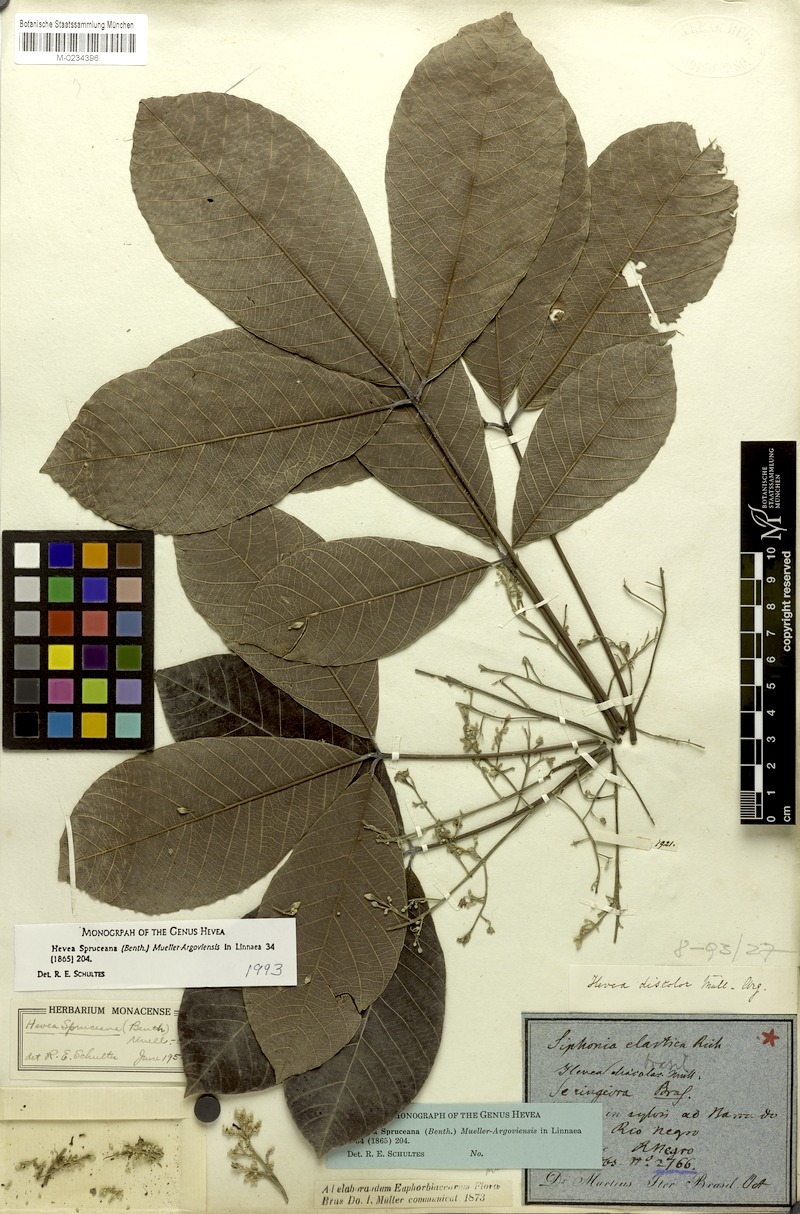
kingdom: Plantae
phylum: Tracheophyta
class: Magnoliopsida
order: Malpighiales
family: Euphorbiaceae
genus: Hevea
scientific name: Hevea spruceana
